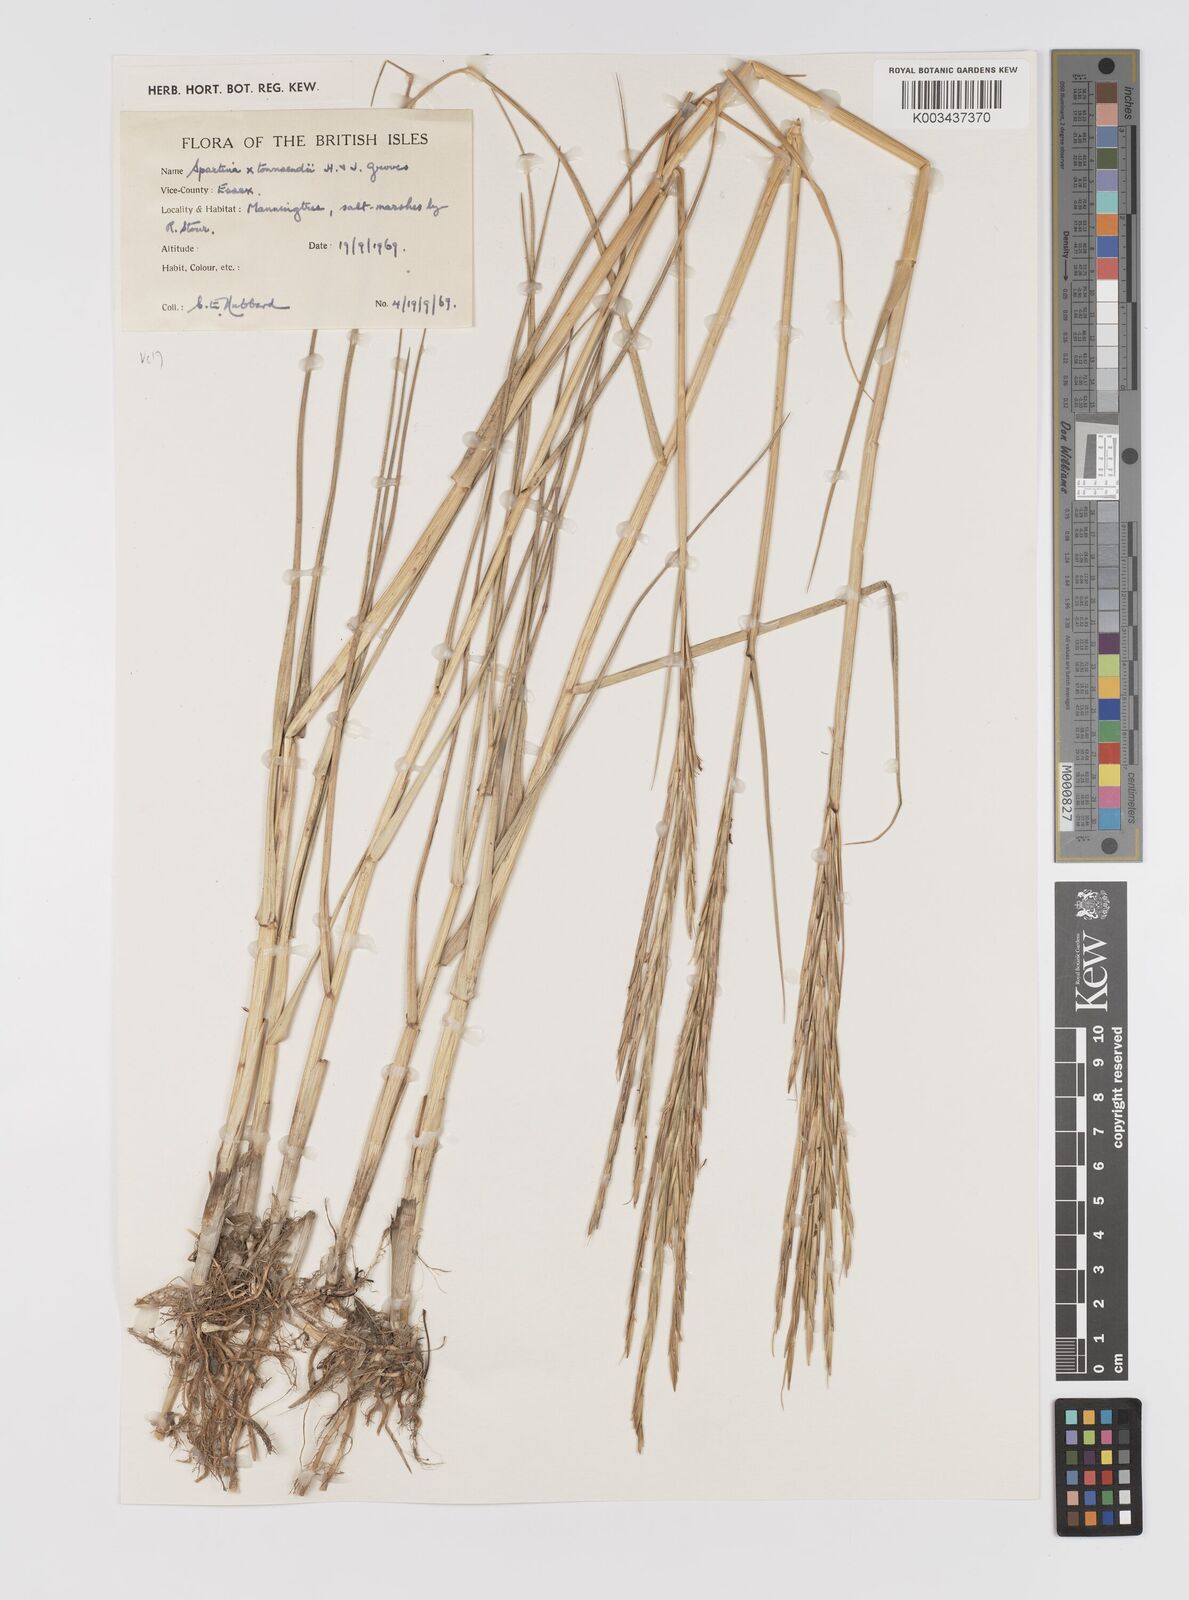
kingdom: Plantae
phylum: Tracheophyta
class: Liliopsida
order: Poales
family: Poaceae
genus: Sporobolus
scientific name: Sporobolus townsendii
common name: Townsend's cordgrass
